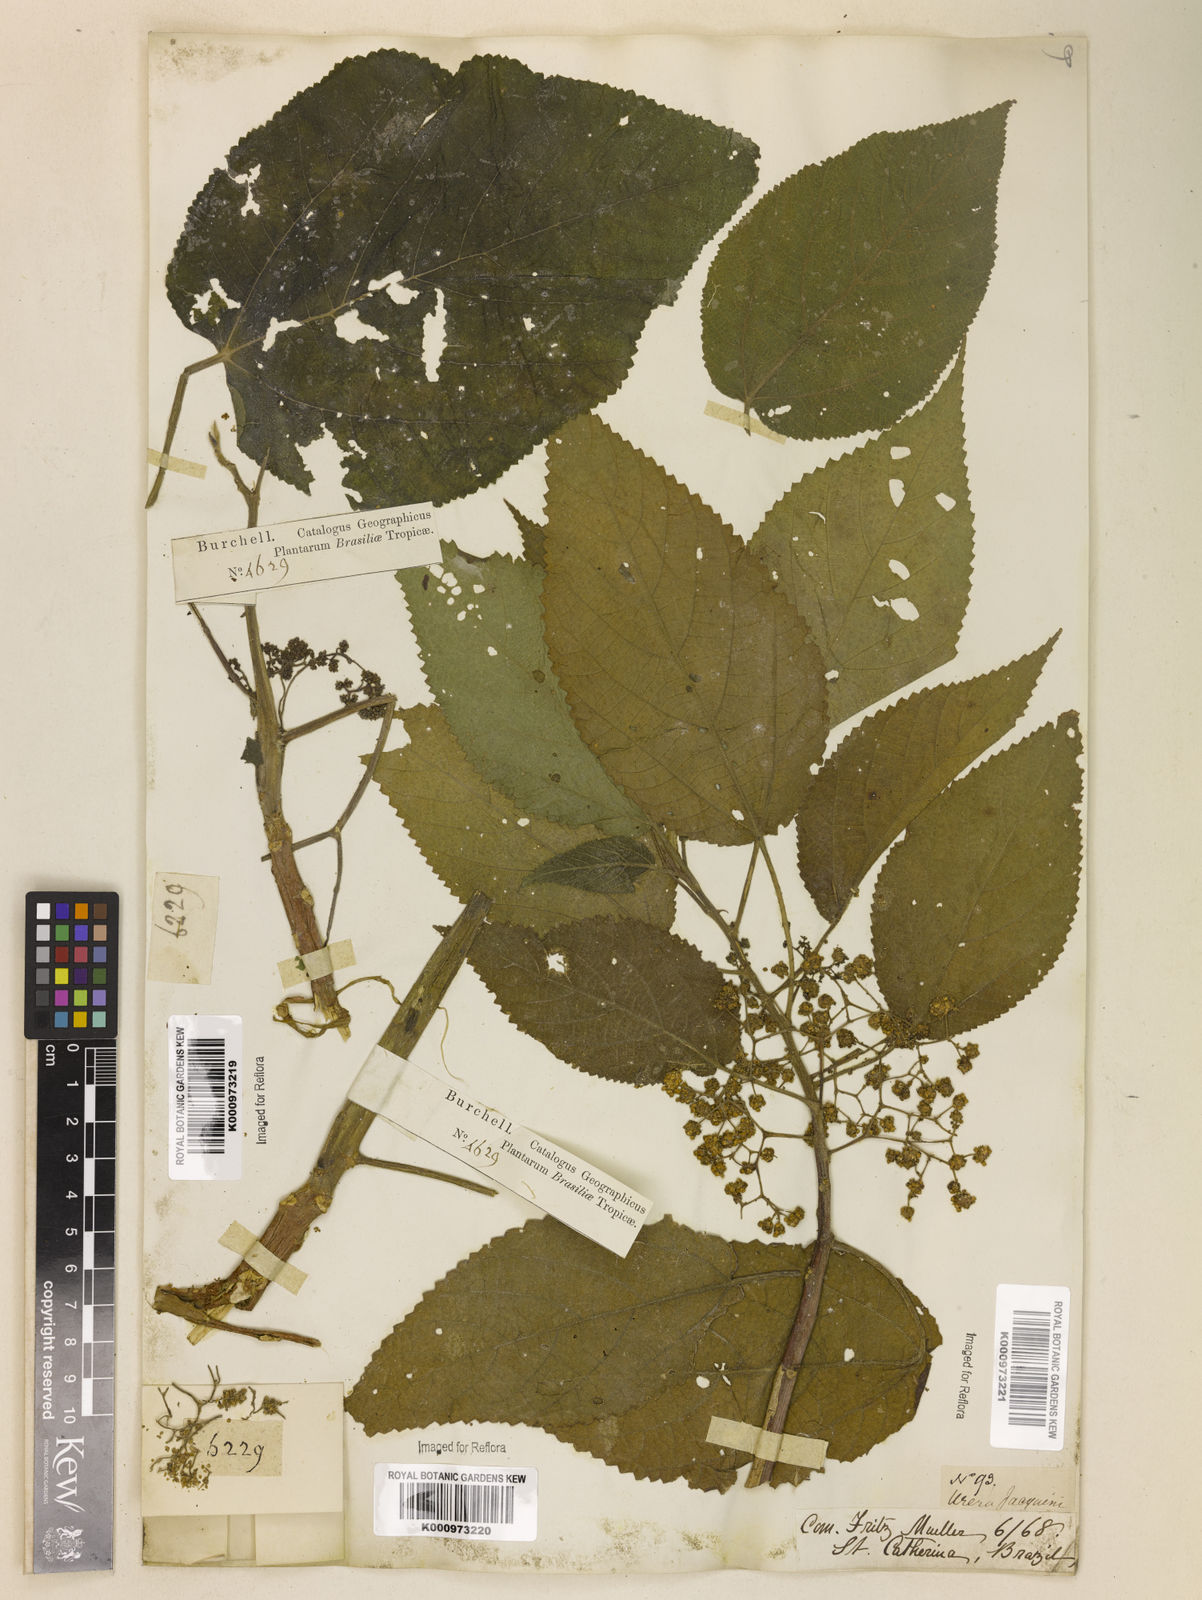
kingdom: Plantae
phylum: Tracheophyta
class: Magnoliopsida
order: Rosales
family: Urticaceae
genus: Urera
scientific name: Urera caracasana
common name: Flameberry
